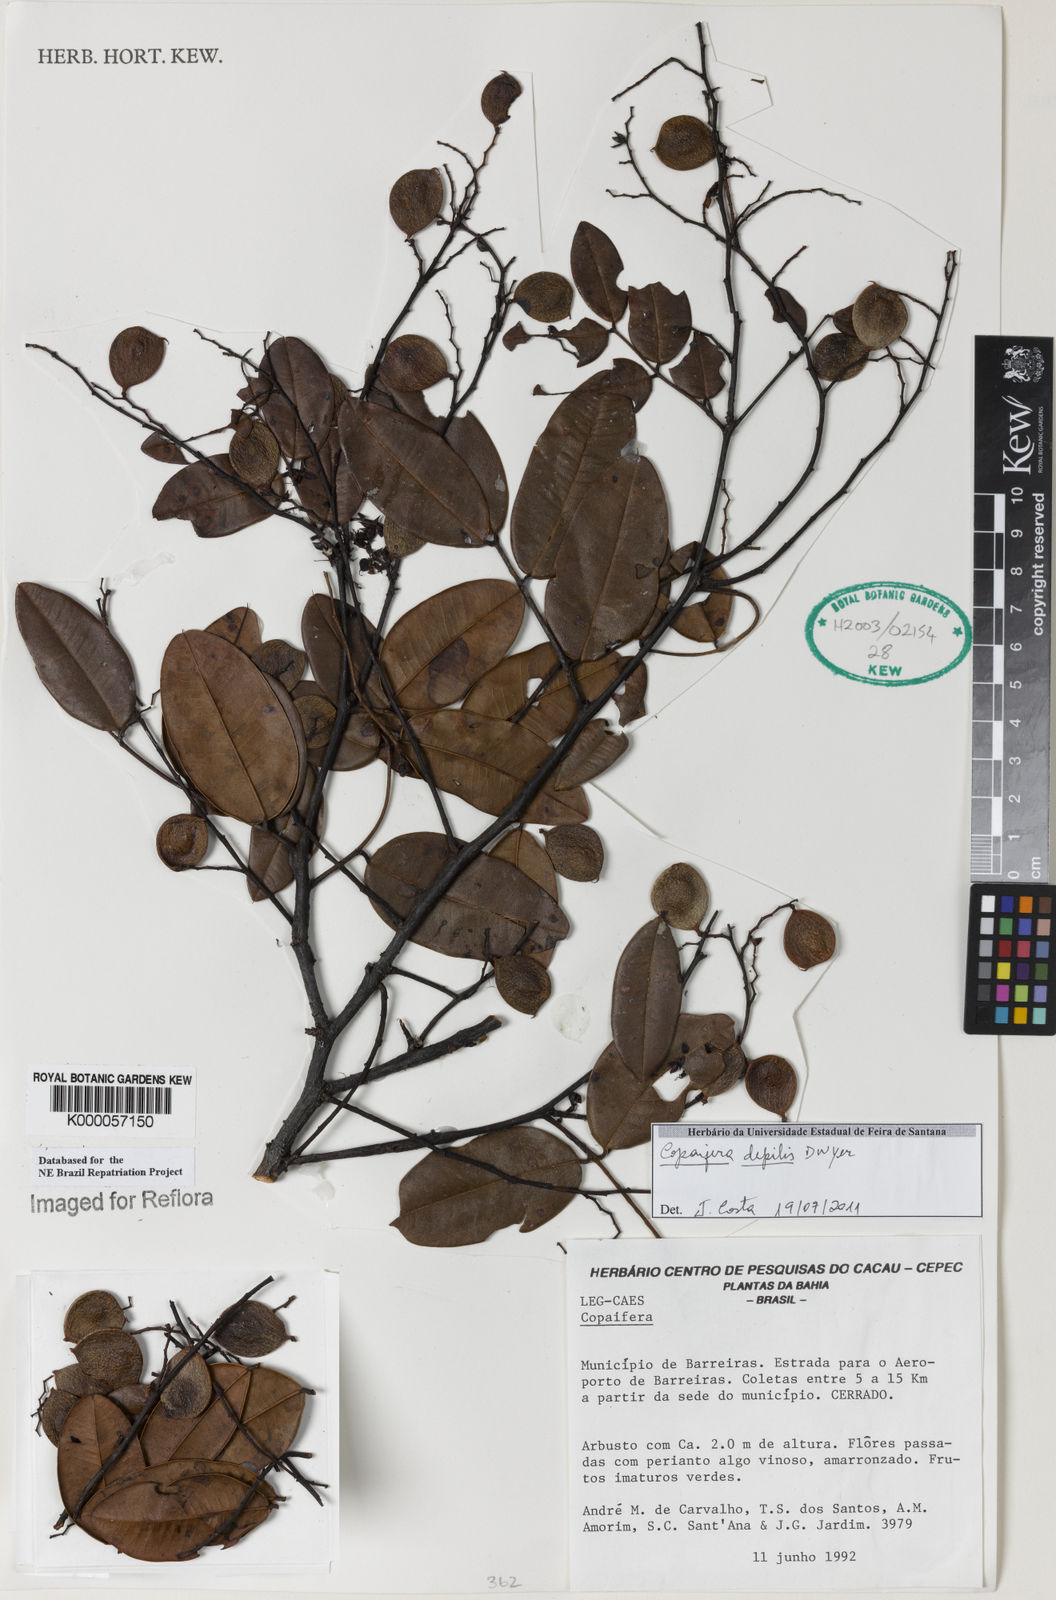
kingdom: Plantae
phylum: Tracheophyta
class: Magnoliopsida
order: Fabales
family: Fabaceae
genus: Copaifera
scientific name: Copaifera depilis
